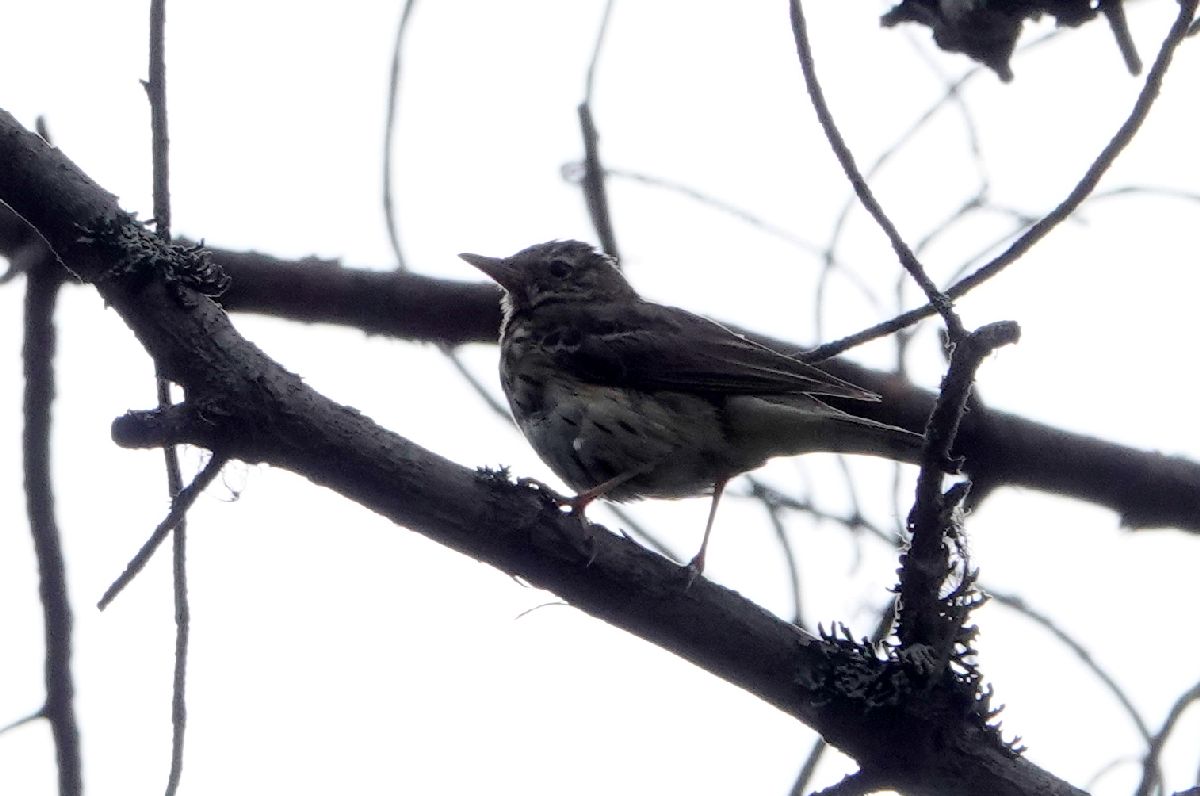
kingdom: Animalia
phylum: Chordata
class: Aves
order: Passeriformes
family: Motacillidae
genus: Anthus
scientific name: Anthus trivialis
